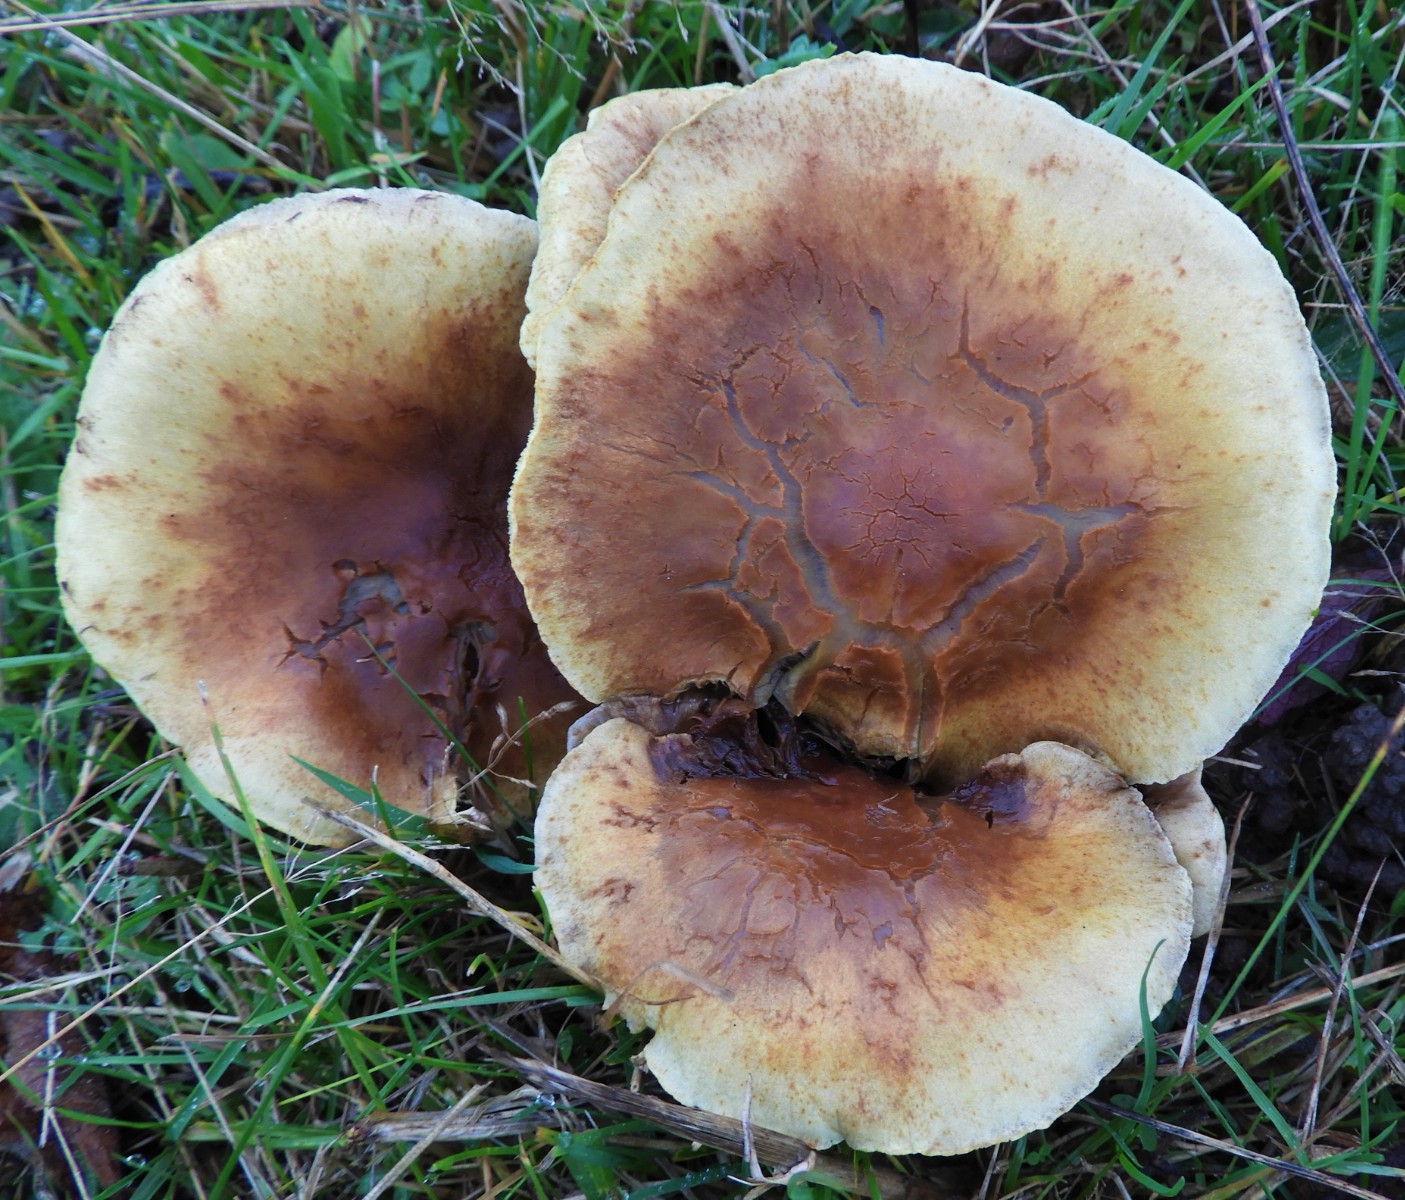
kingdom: Fungi
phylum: Basidiomycota
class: Agaricomycetes
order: Agaricales
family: Strophariaceae
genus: Hypholoma
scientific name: Hypholoma fasciculare
